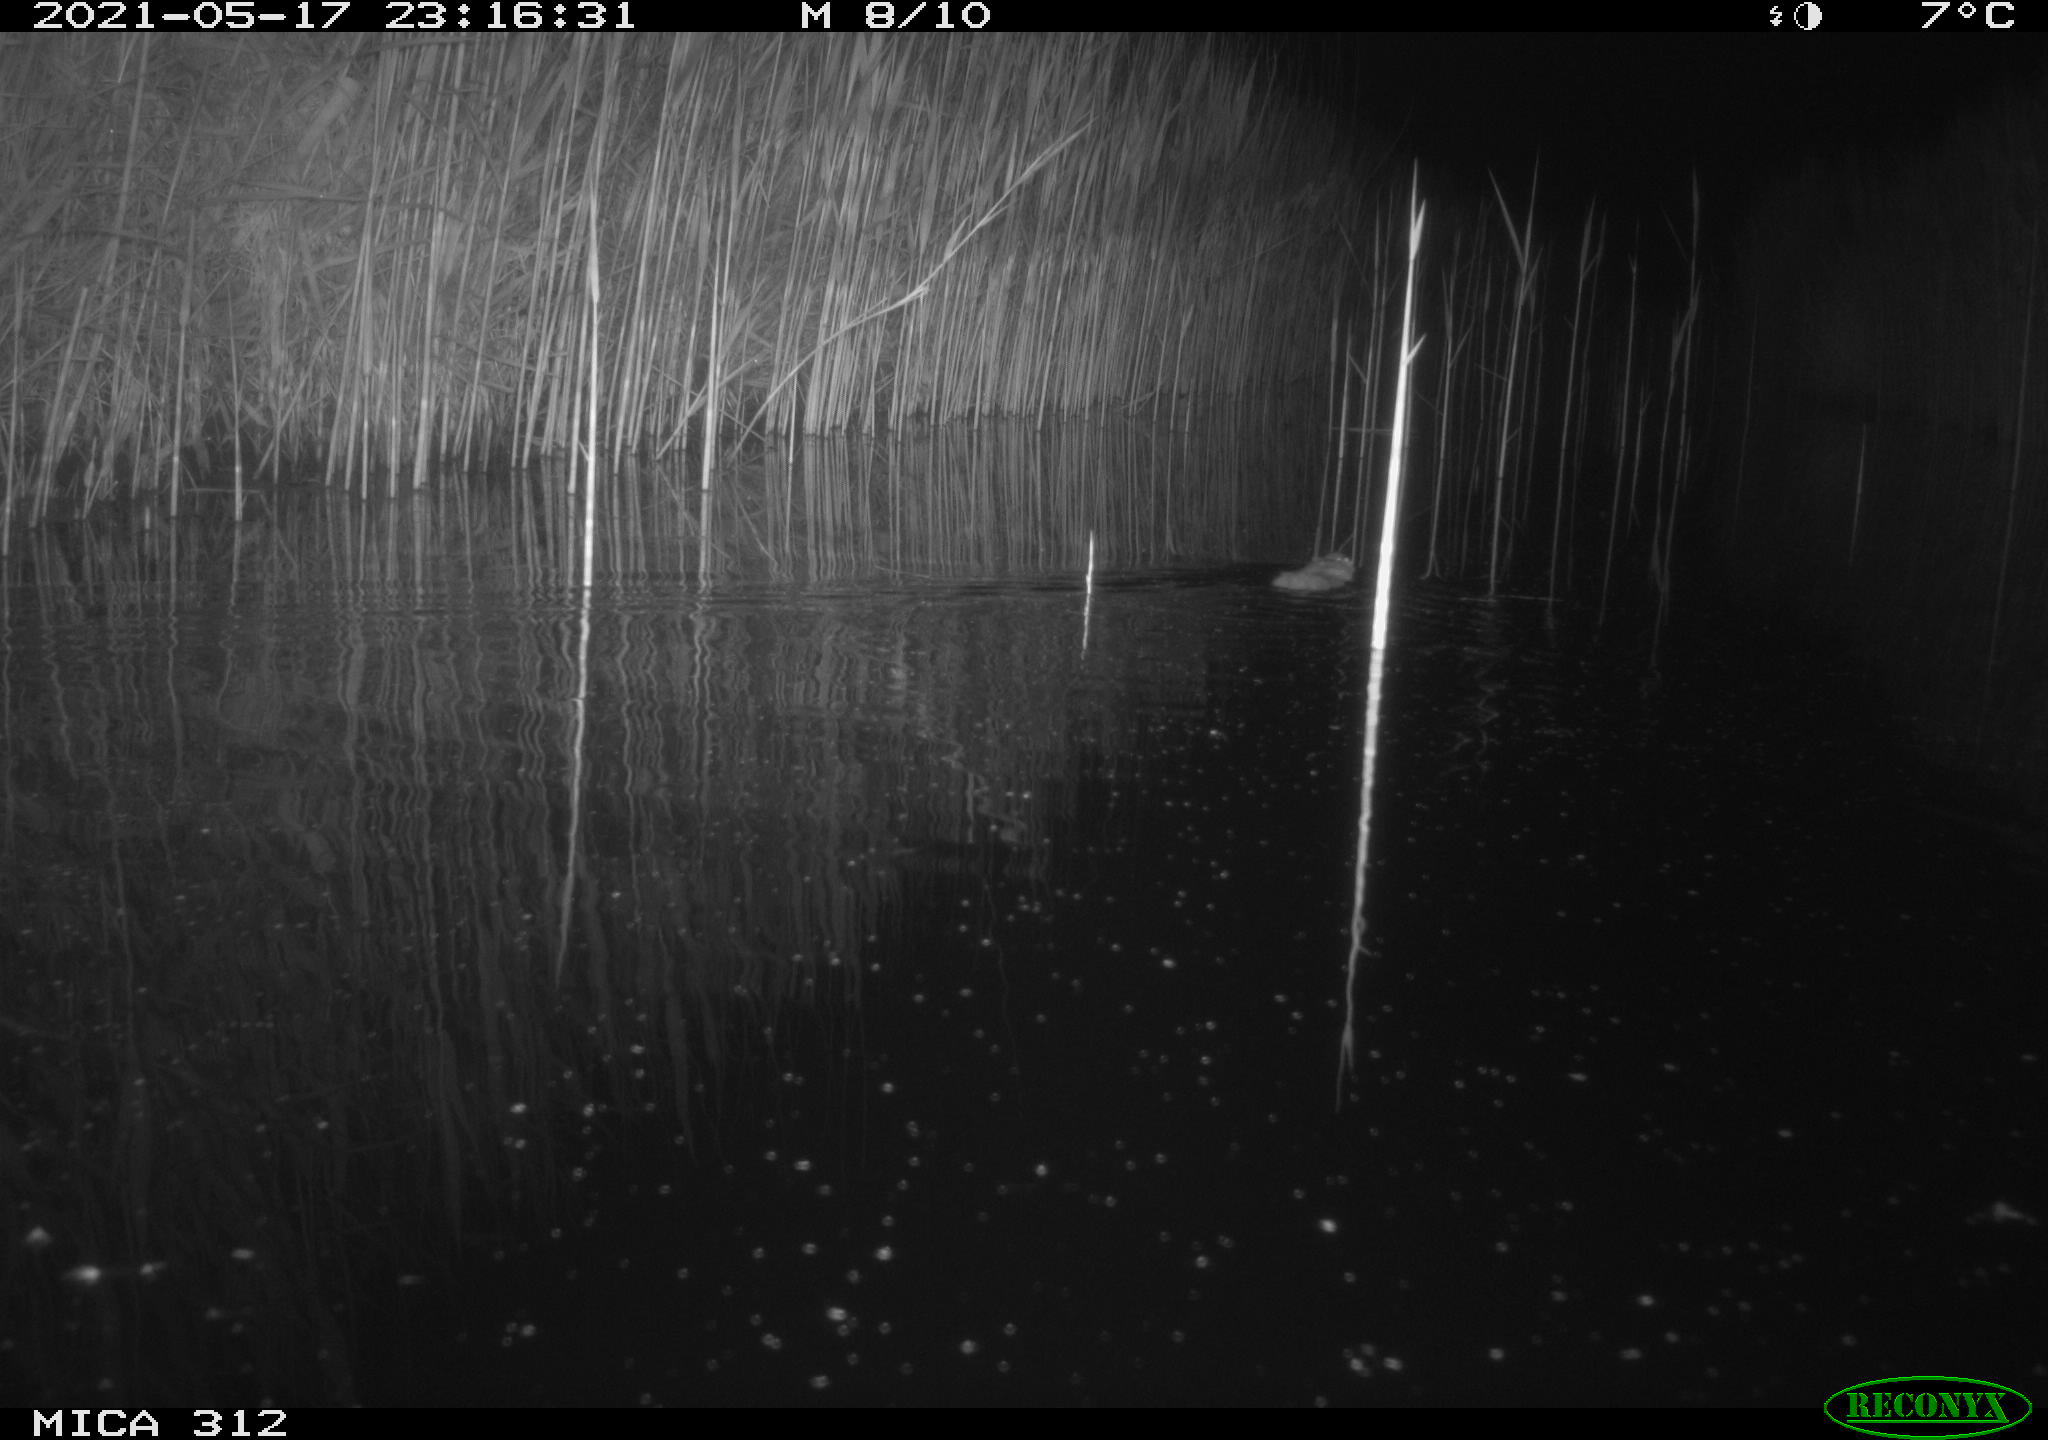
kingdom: Animalia
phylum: Chordata
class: Mammalia
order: Rodentia
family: Cricetidae
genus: Ondatra
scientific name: Ondatra zibethicus
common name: Muskrat
